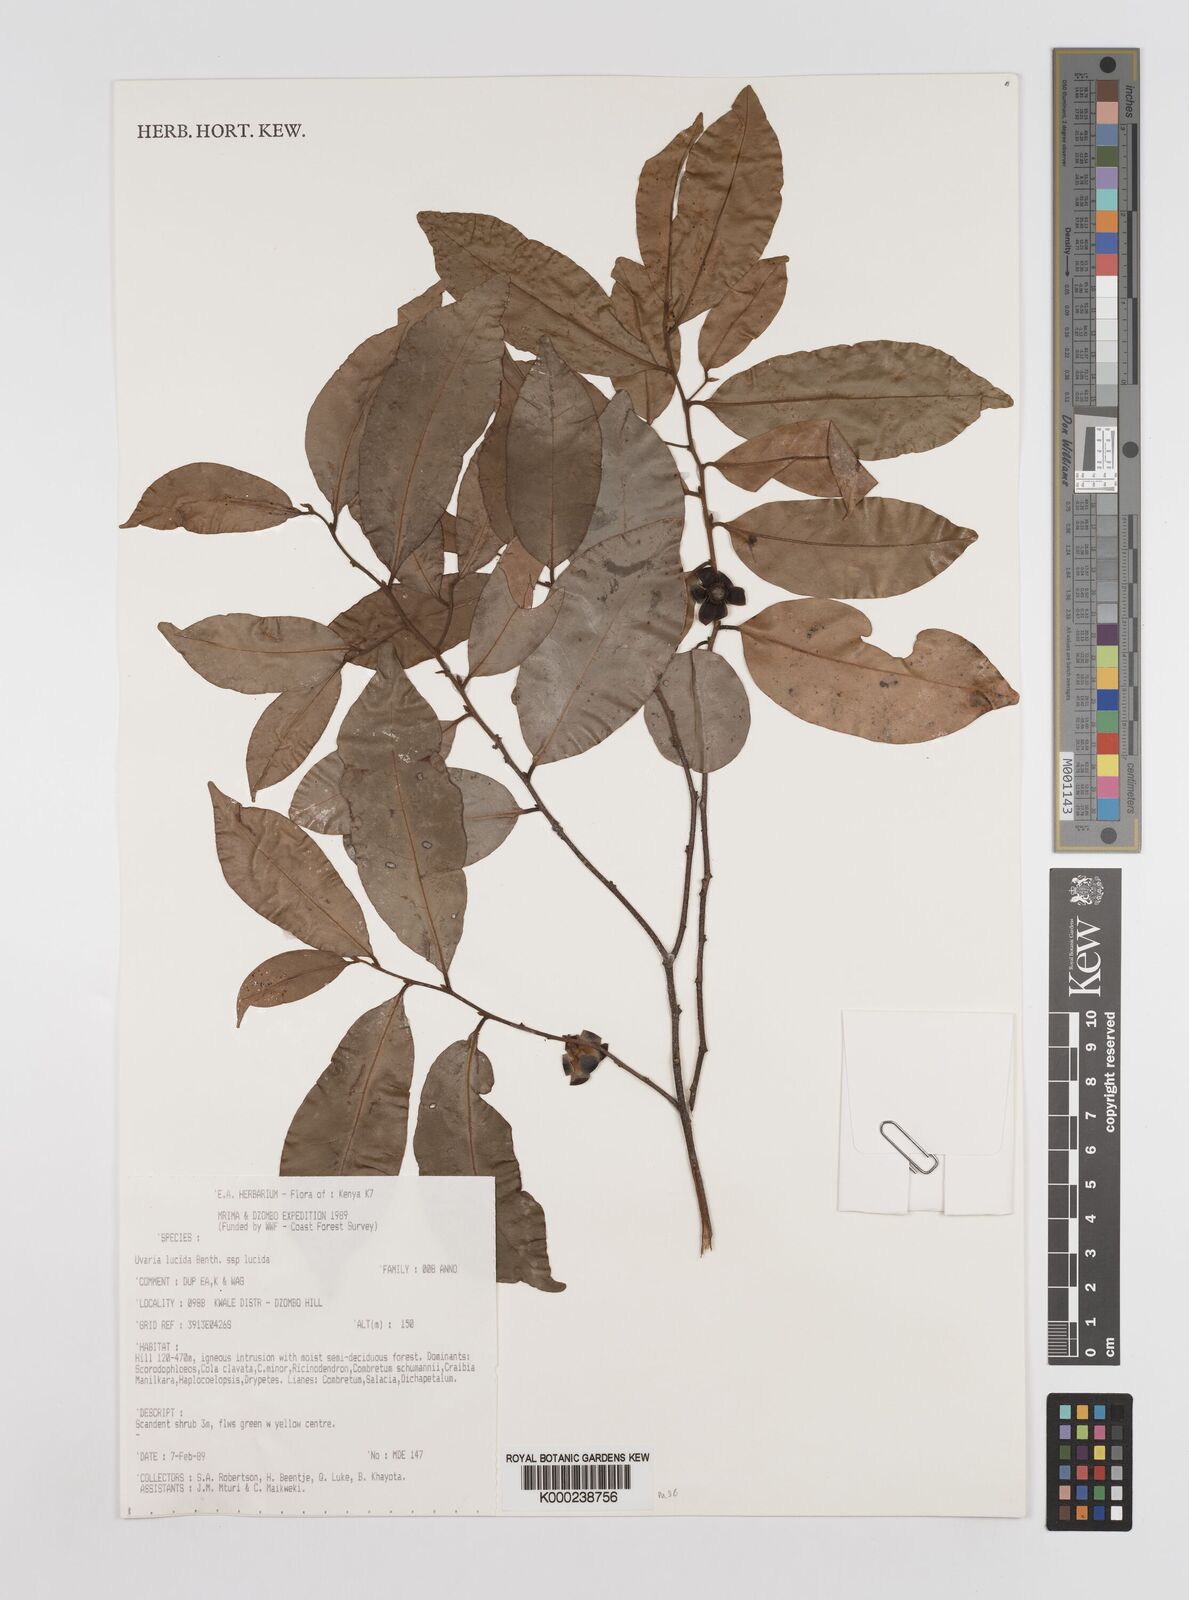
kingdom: Plantae
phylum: Tracheophyta
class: Magnoliopsida
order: Magnoliales
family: Annonaceae
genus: Uvaria
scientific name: Uvaria lucida
